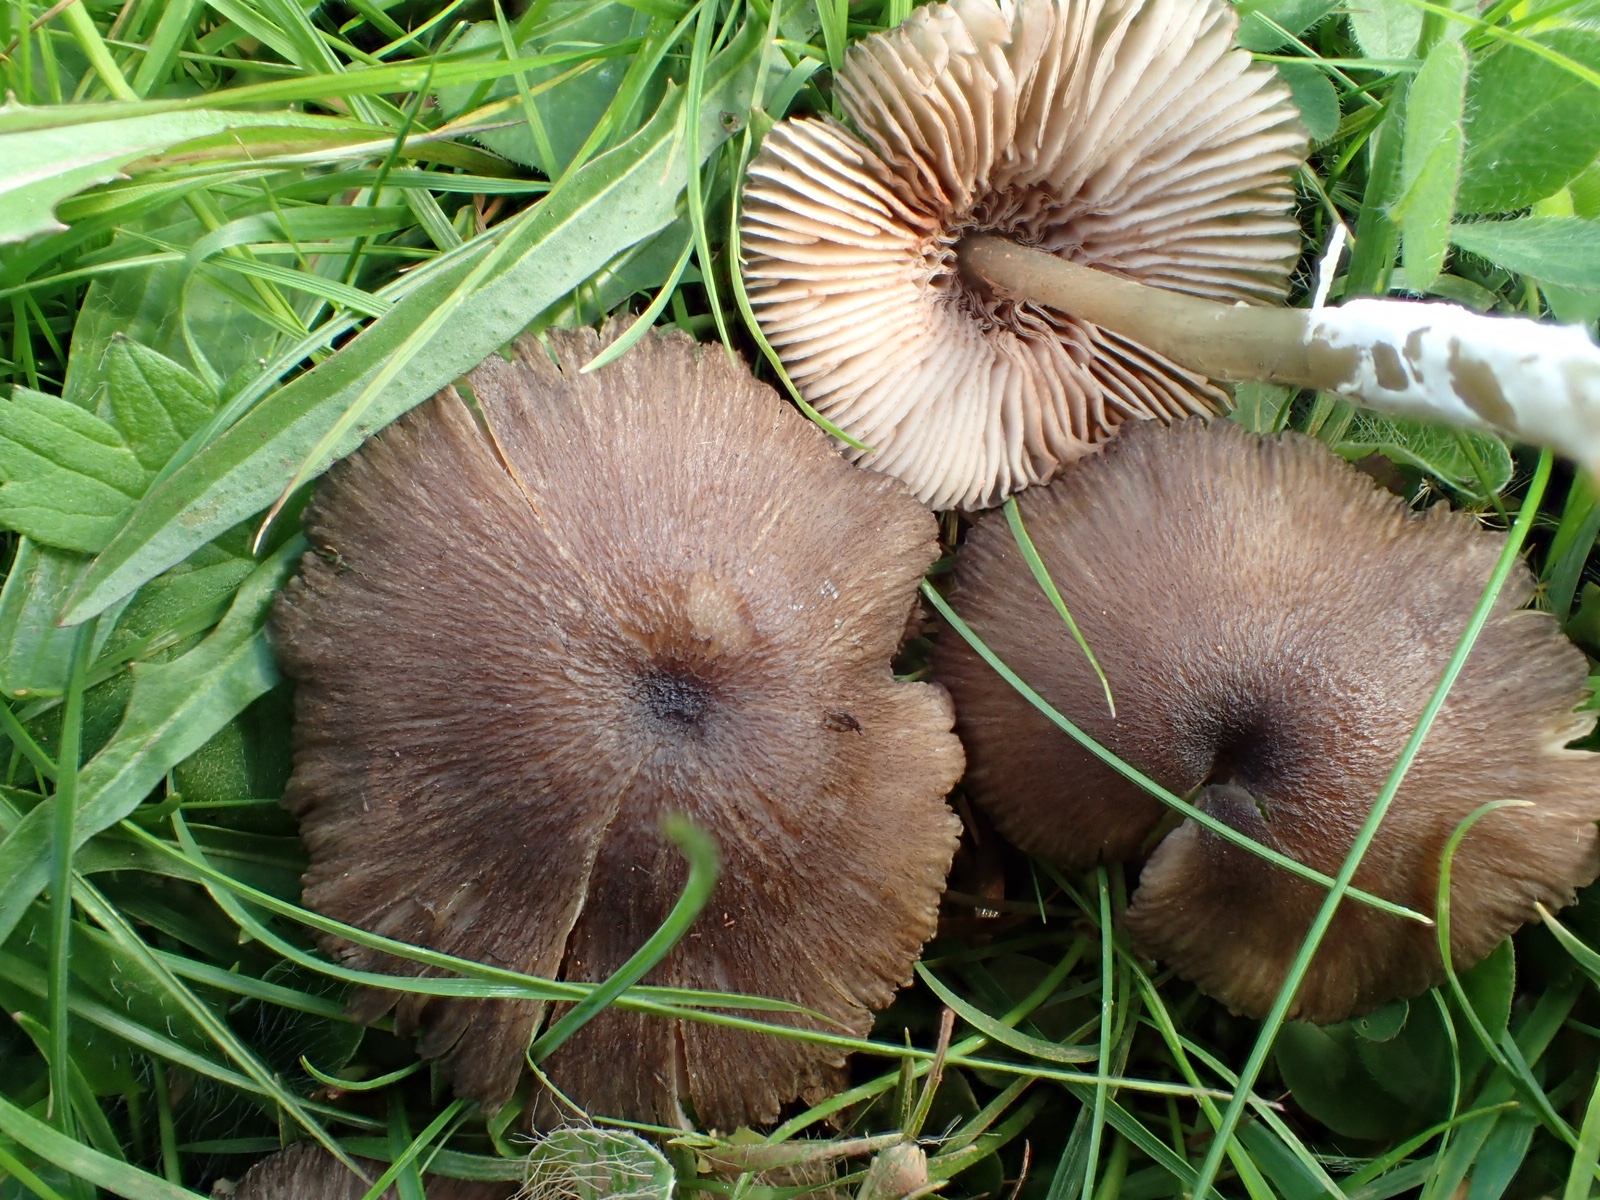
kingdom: Fungi
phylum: Basidiomycota
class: Agaricomycetes
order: Agaricales
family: Entolomataceae
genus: Entoloma
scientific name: Entoloma
